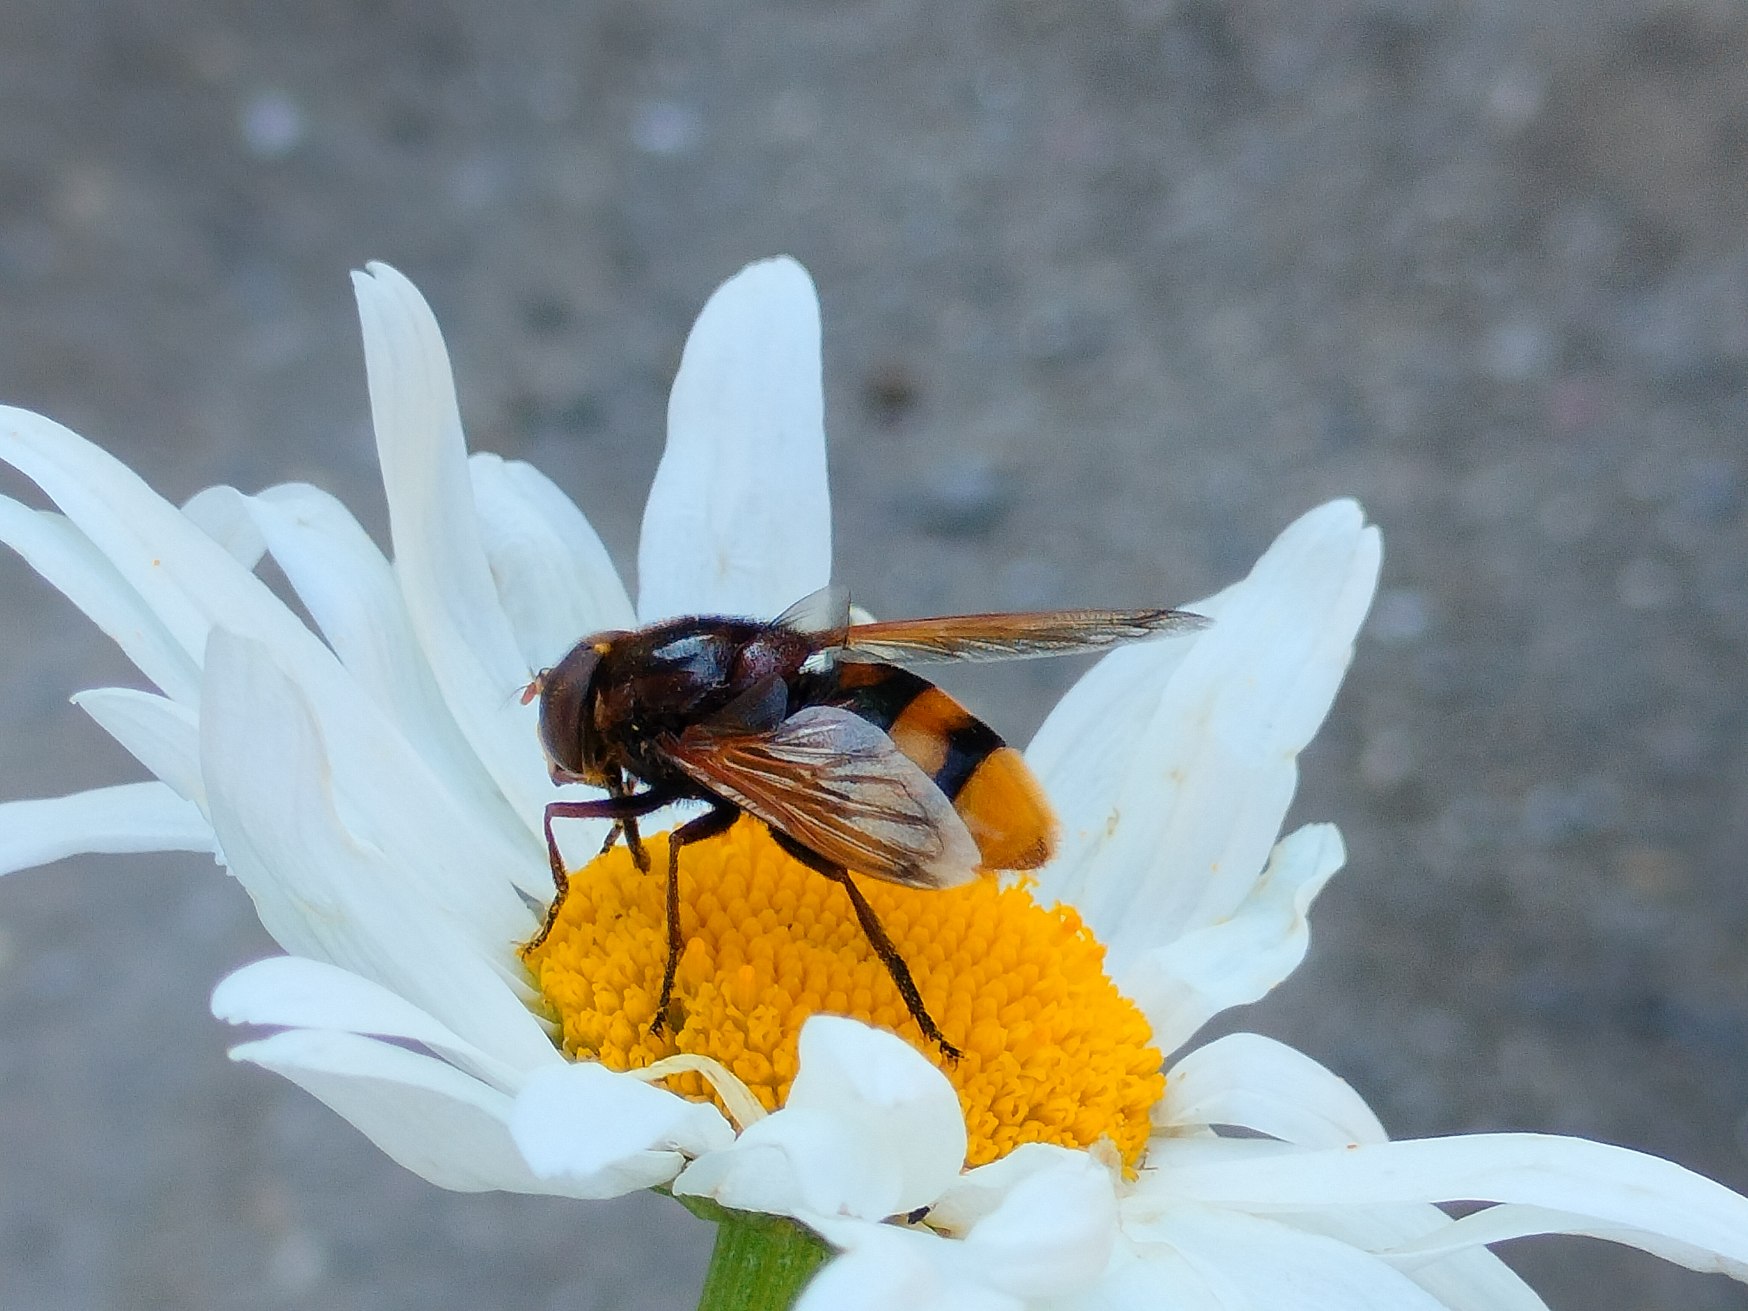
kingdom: Animalia
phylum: Arthropoda
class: Insecta
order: Diptera
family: Syrphidae
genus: Volucella
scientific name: Volucella zonaria
